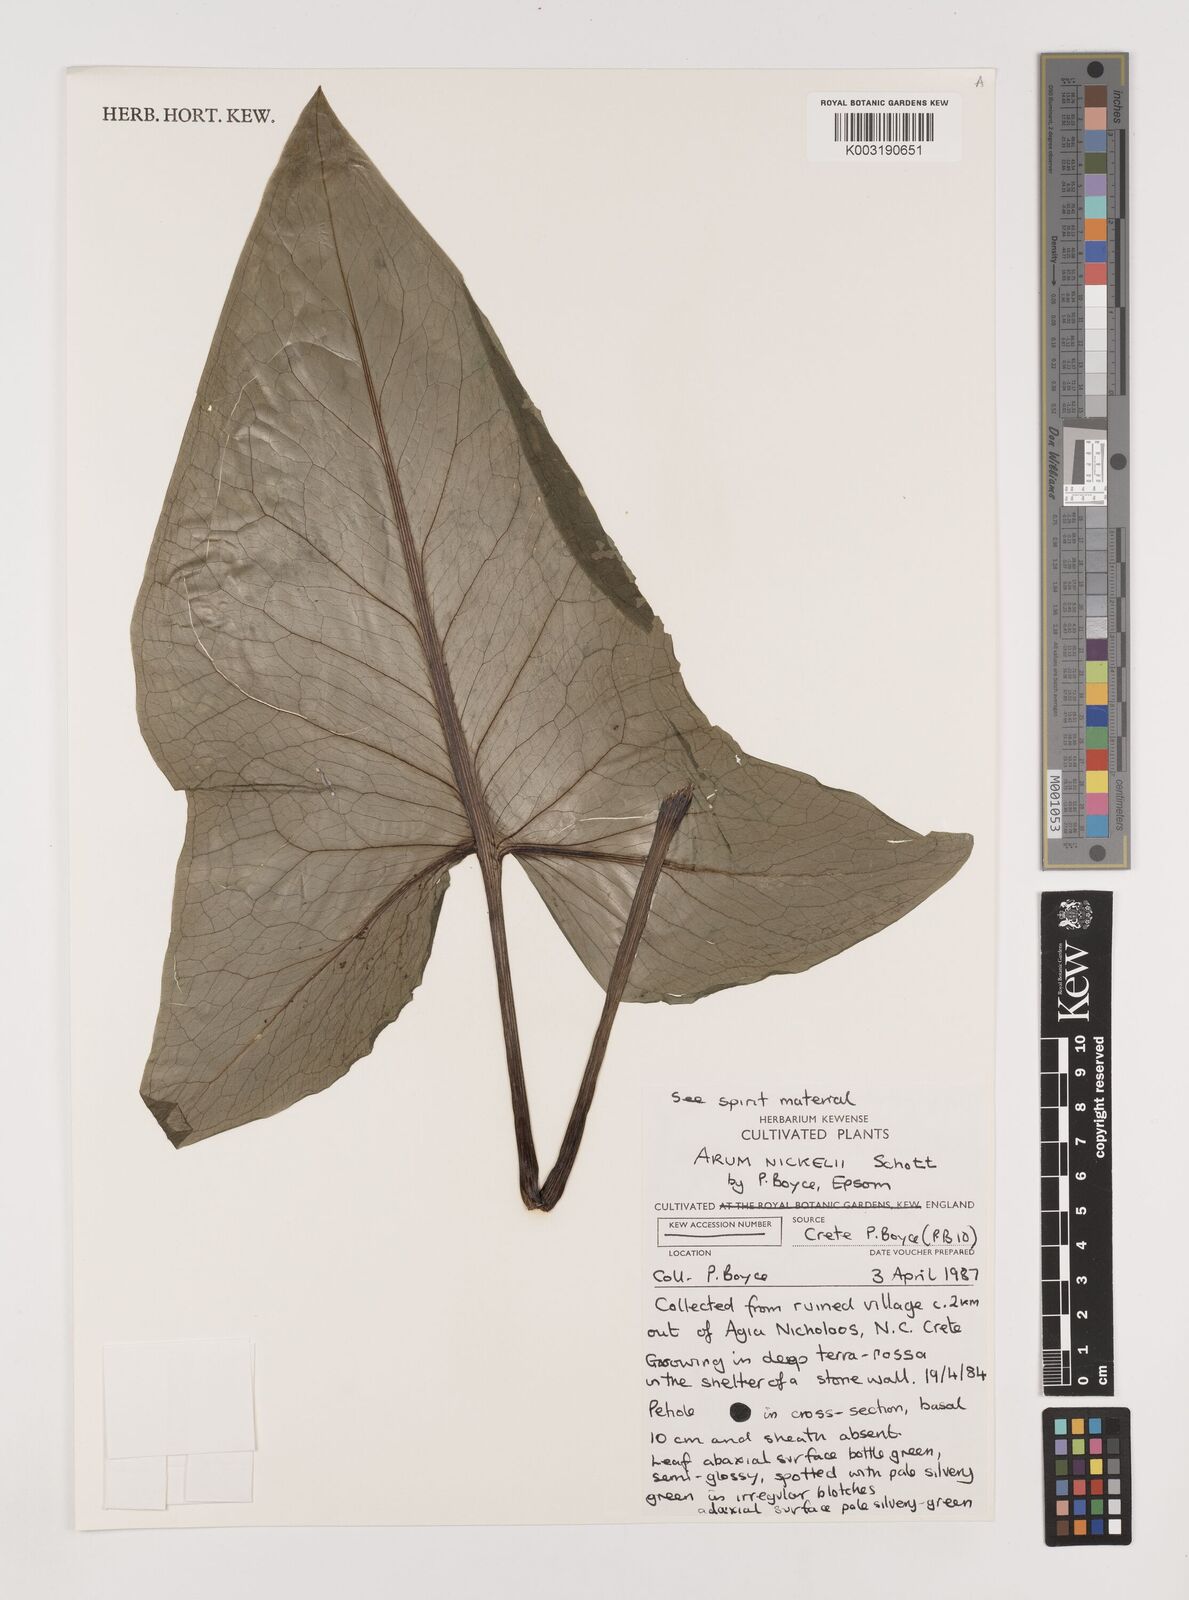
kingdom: Plantae
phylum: Tracheophyta
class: Liliopsida
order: Alismatales
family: Araceae
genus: Arum
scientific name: Arum concinnatum
